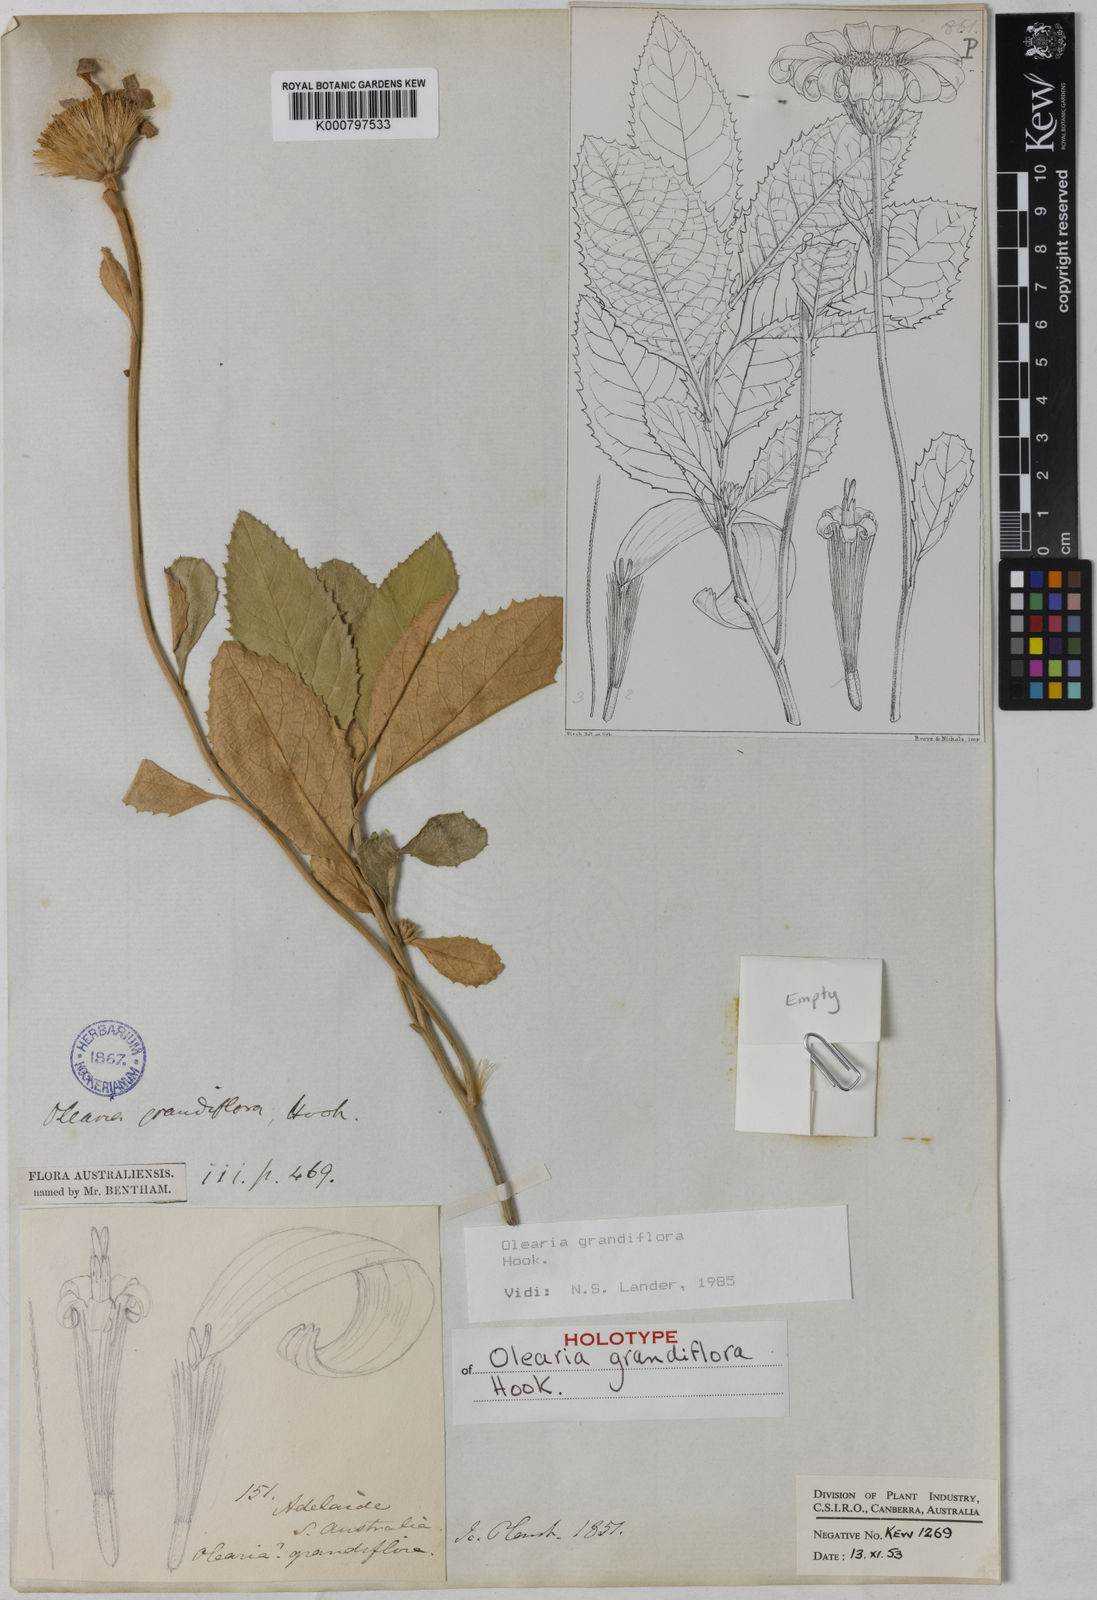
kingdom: Plantae
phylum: Tracheophyta
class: Magnoliopsida
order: Asterales
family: Asteraceae
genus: Olearia
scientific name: Olearia grandiflora
